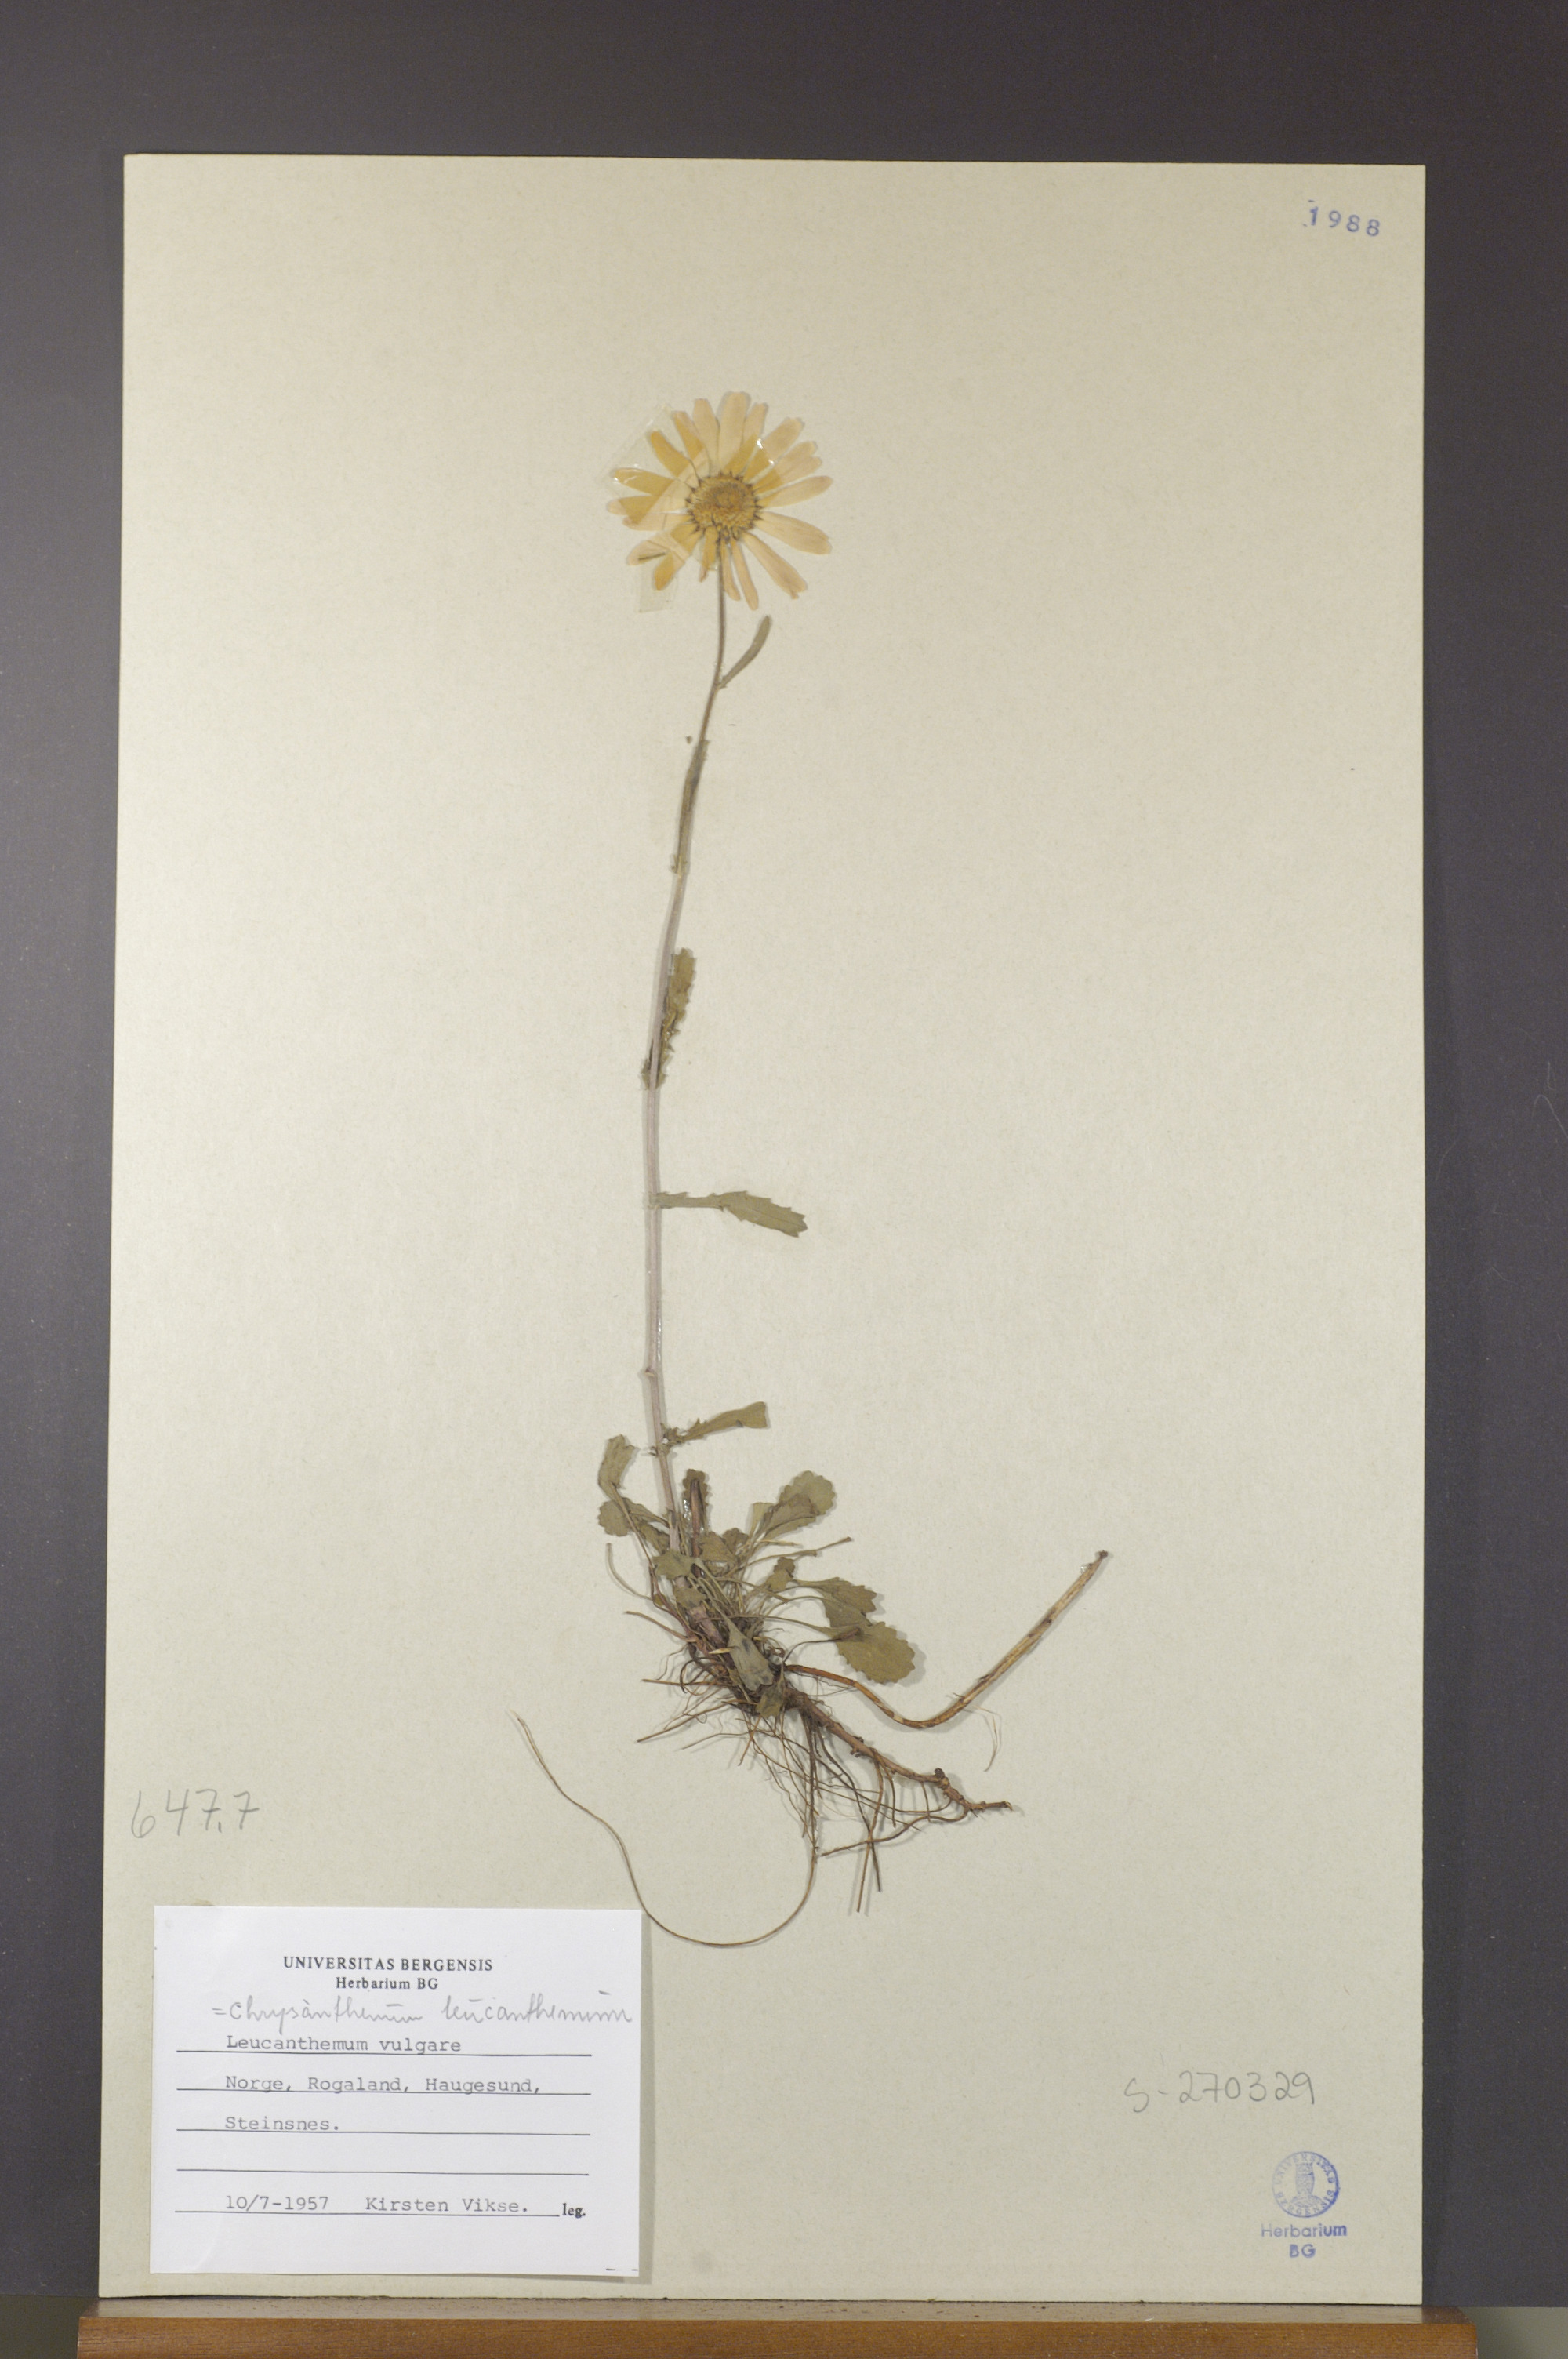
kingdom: Plantae
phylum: Tracheophyta
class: Magnoliopsida
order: Asterales
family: Asteraceae
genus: Leucanthemum
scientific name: Leucanthemum vulgare
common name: Oxeye daisy
